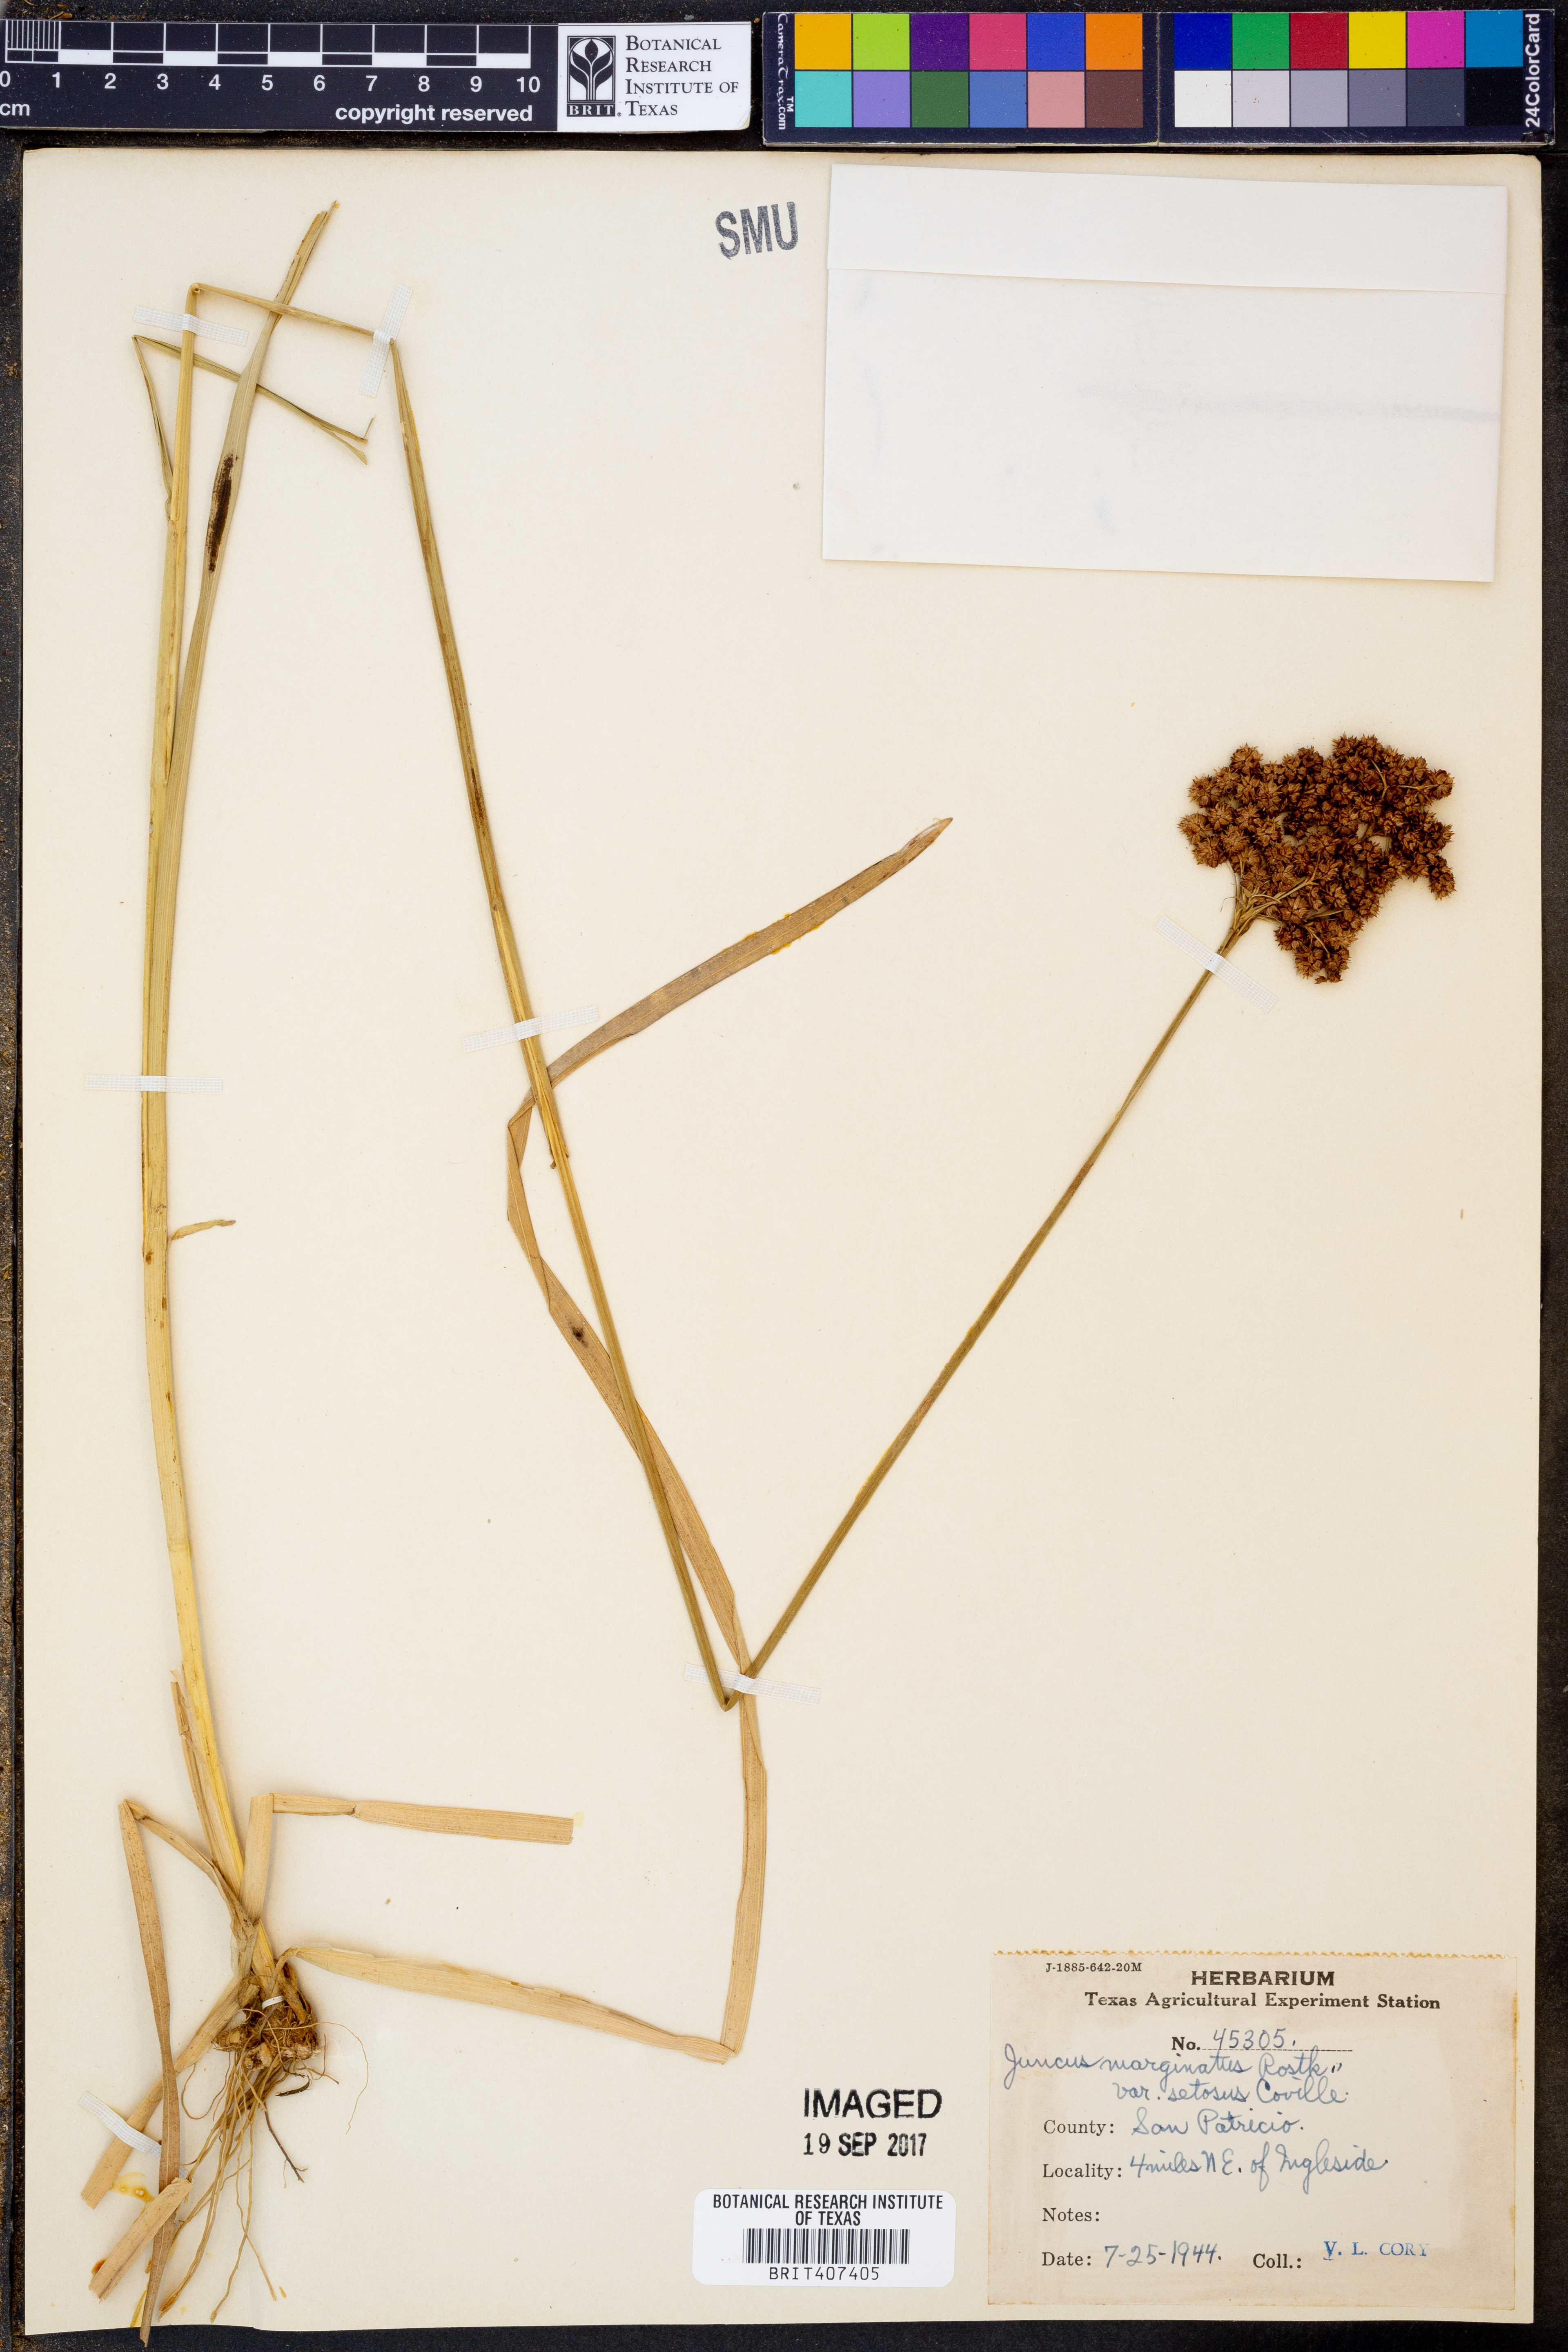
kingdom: Plantae
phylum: Tracheophyta
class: Liliopsida
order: Poales
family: Juncaceae
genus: Juncus
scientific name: Juncus marginatus
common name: Grass-leaf rush
